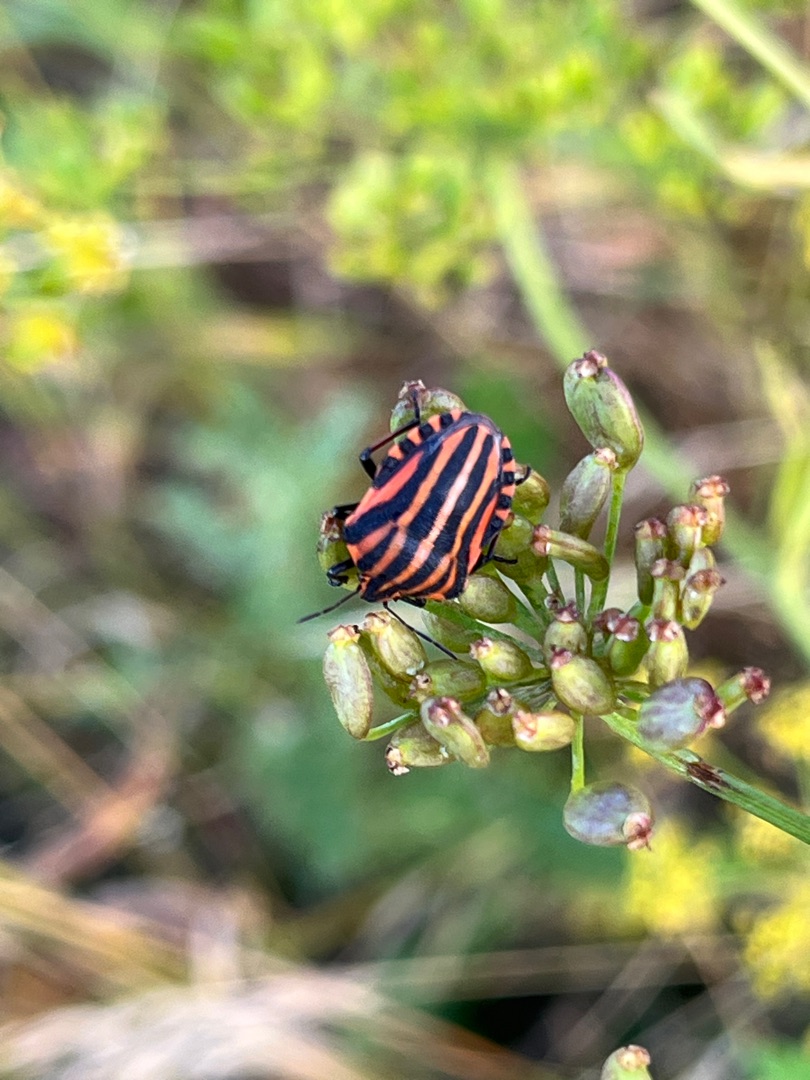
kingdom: Animalia
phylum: Arthropoda
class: Insecta
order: Hemiptera
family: Pentatomidae
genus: Graphosoma
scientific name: Graphosoma italicum
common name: Stribetæge
